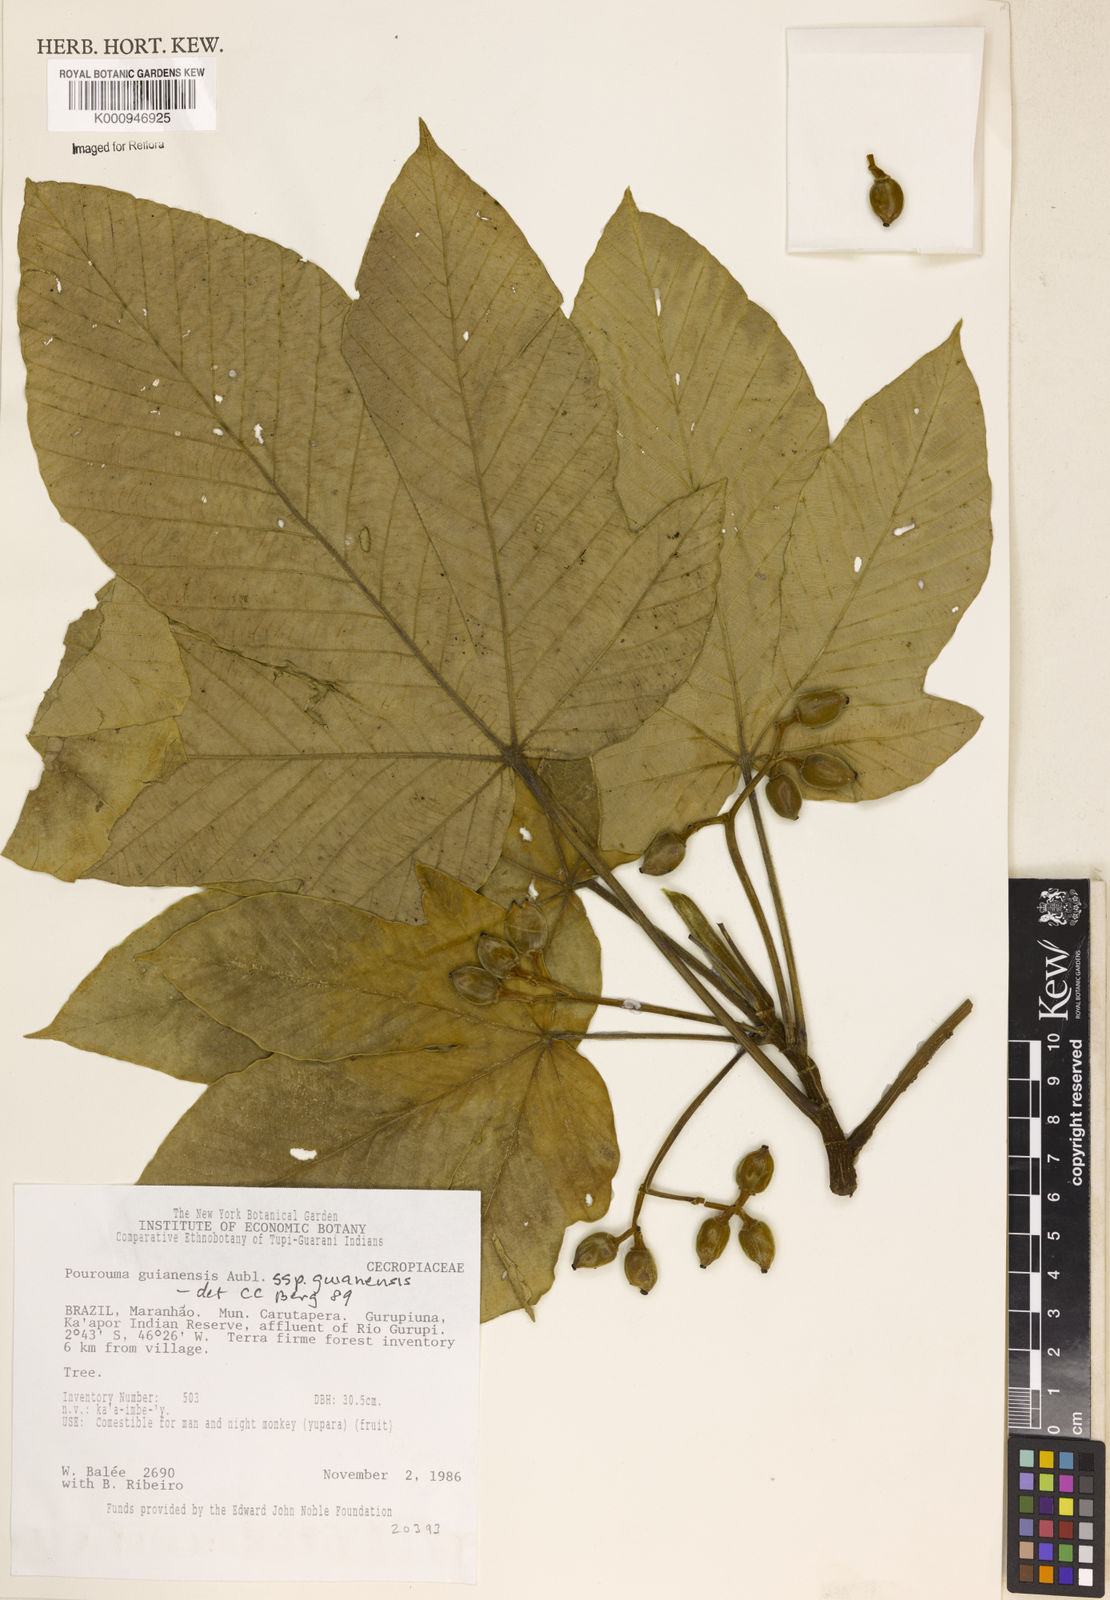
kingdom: Plantae
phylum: Tracheophyta
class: Magnoliopsida
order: Rosales
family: Urticaceae
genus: Pourouma
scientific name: Pourouma guianensis
